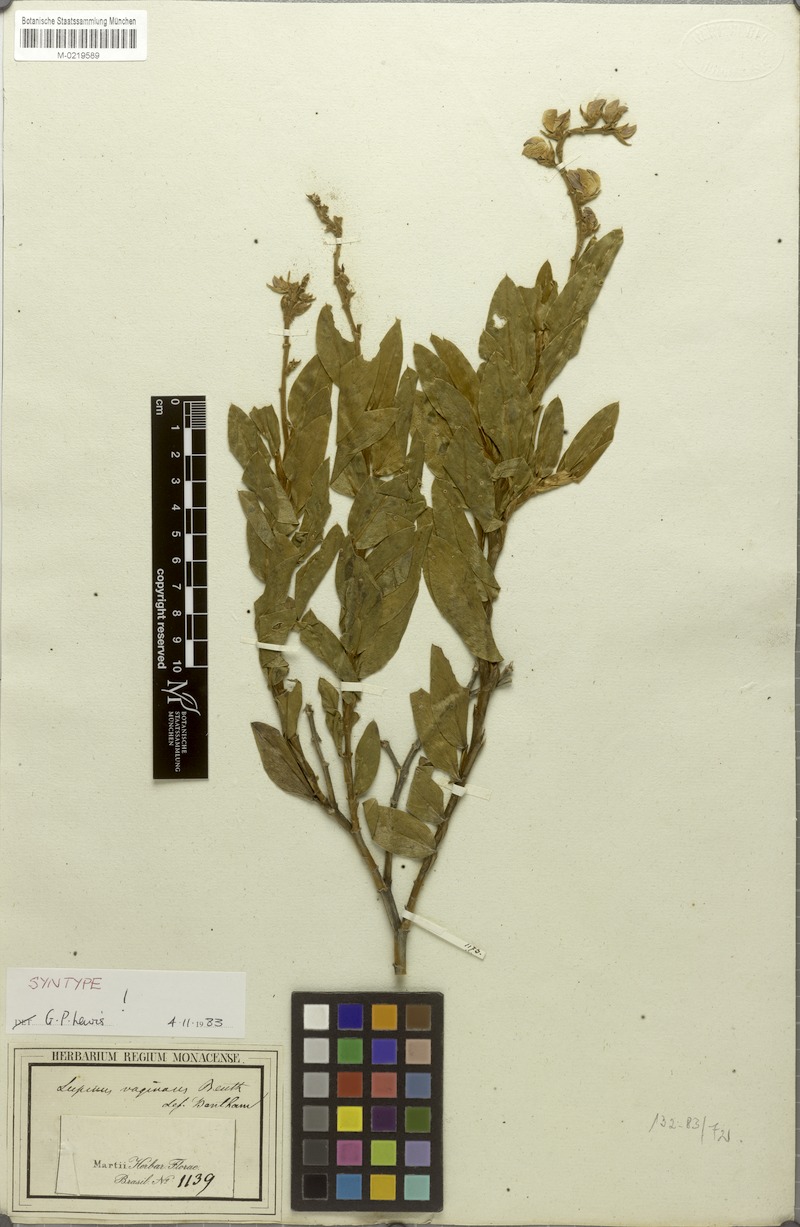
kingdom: Plantae
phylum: Tracheophyta
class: Magnoliopsida
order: Fabales
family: Fabaceae
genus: Lupinus
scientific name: Lupinus velutinus
